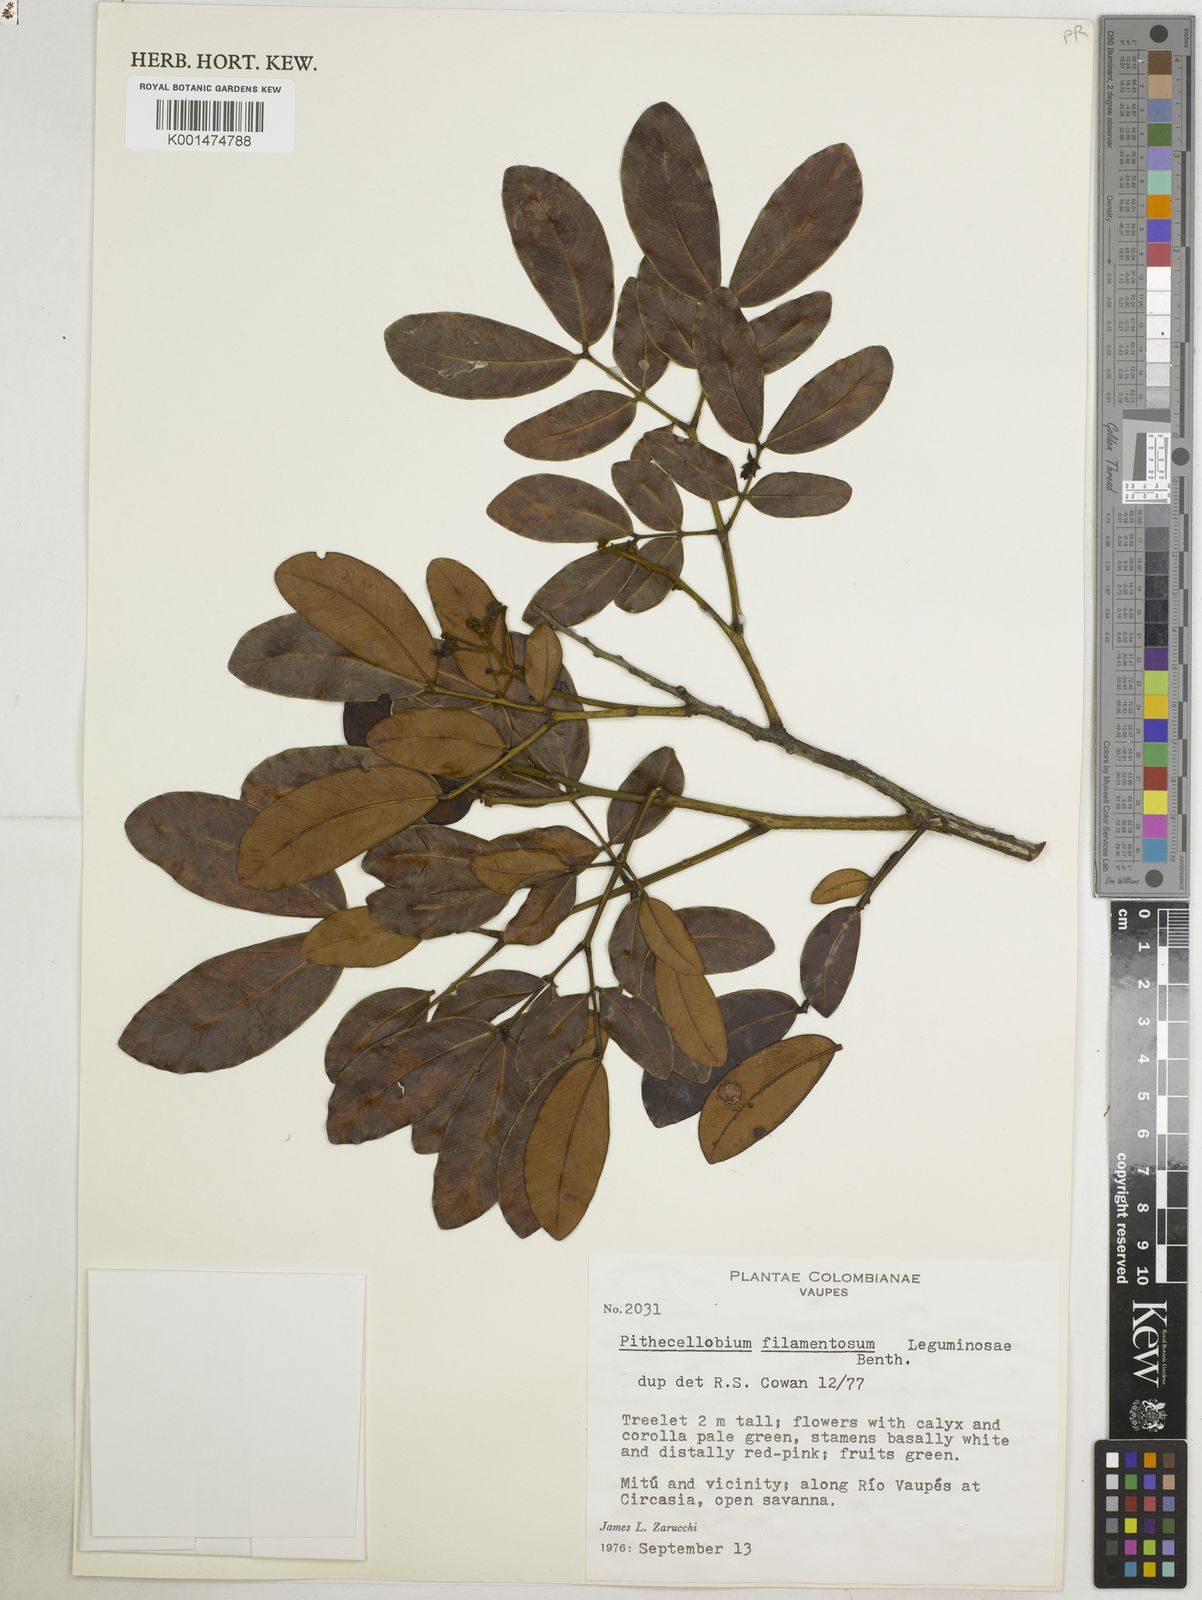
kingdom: Plantae
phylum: Tracheophyta
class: Magnoliopsida
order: Fabales
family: Fabaceae
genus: Jupunba
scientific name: Jupunba filamentosa
